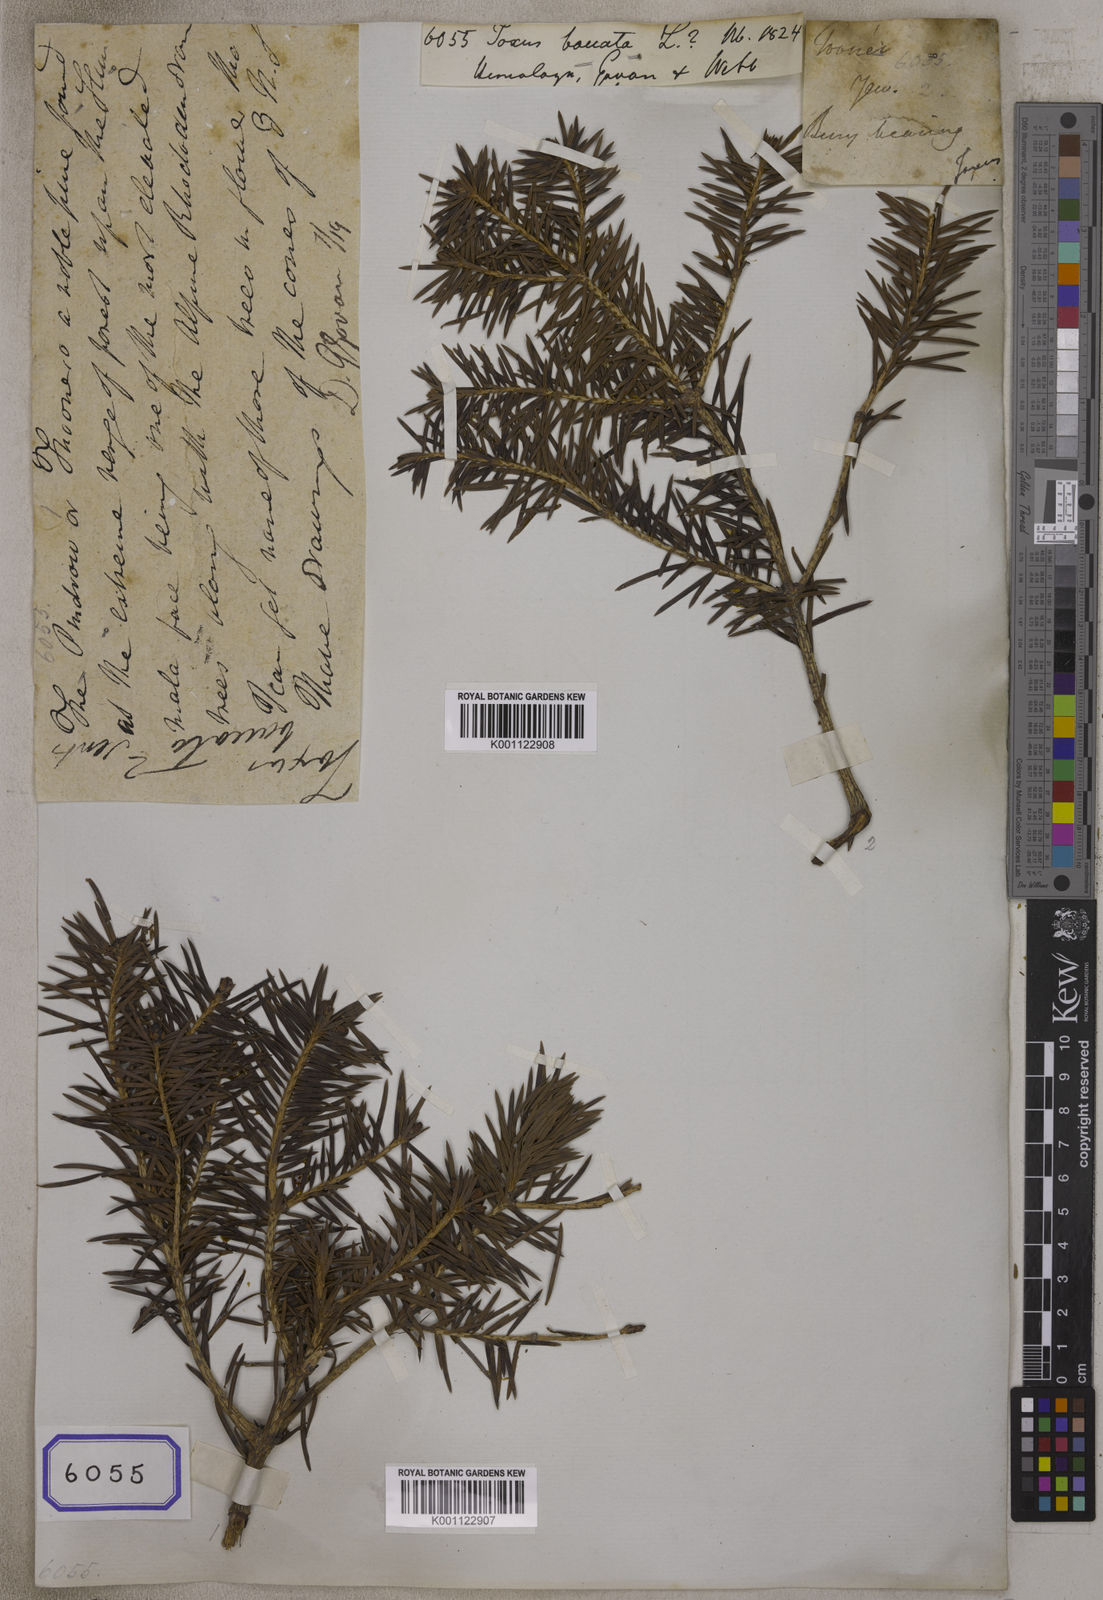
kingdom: Plantae
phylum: Tracheophyta
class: Pinopsida
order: Pinales
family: Taxaceae
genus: Taxus
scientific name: Taxus baccata
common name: Yew
